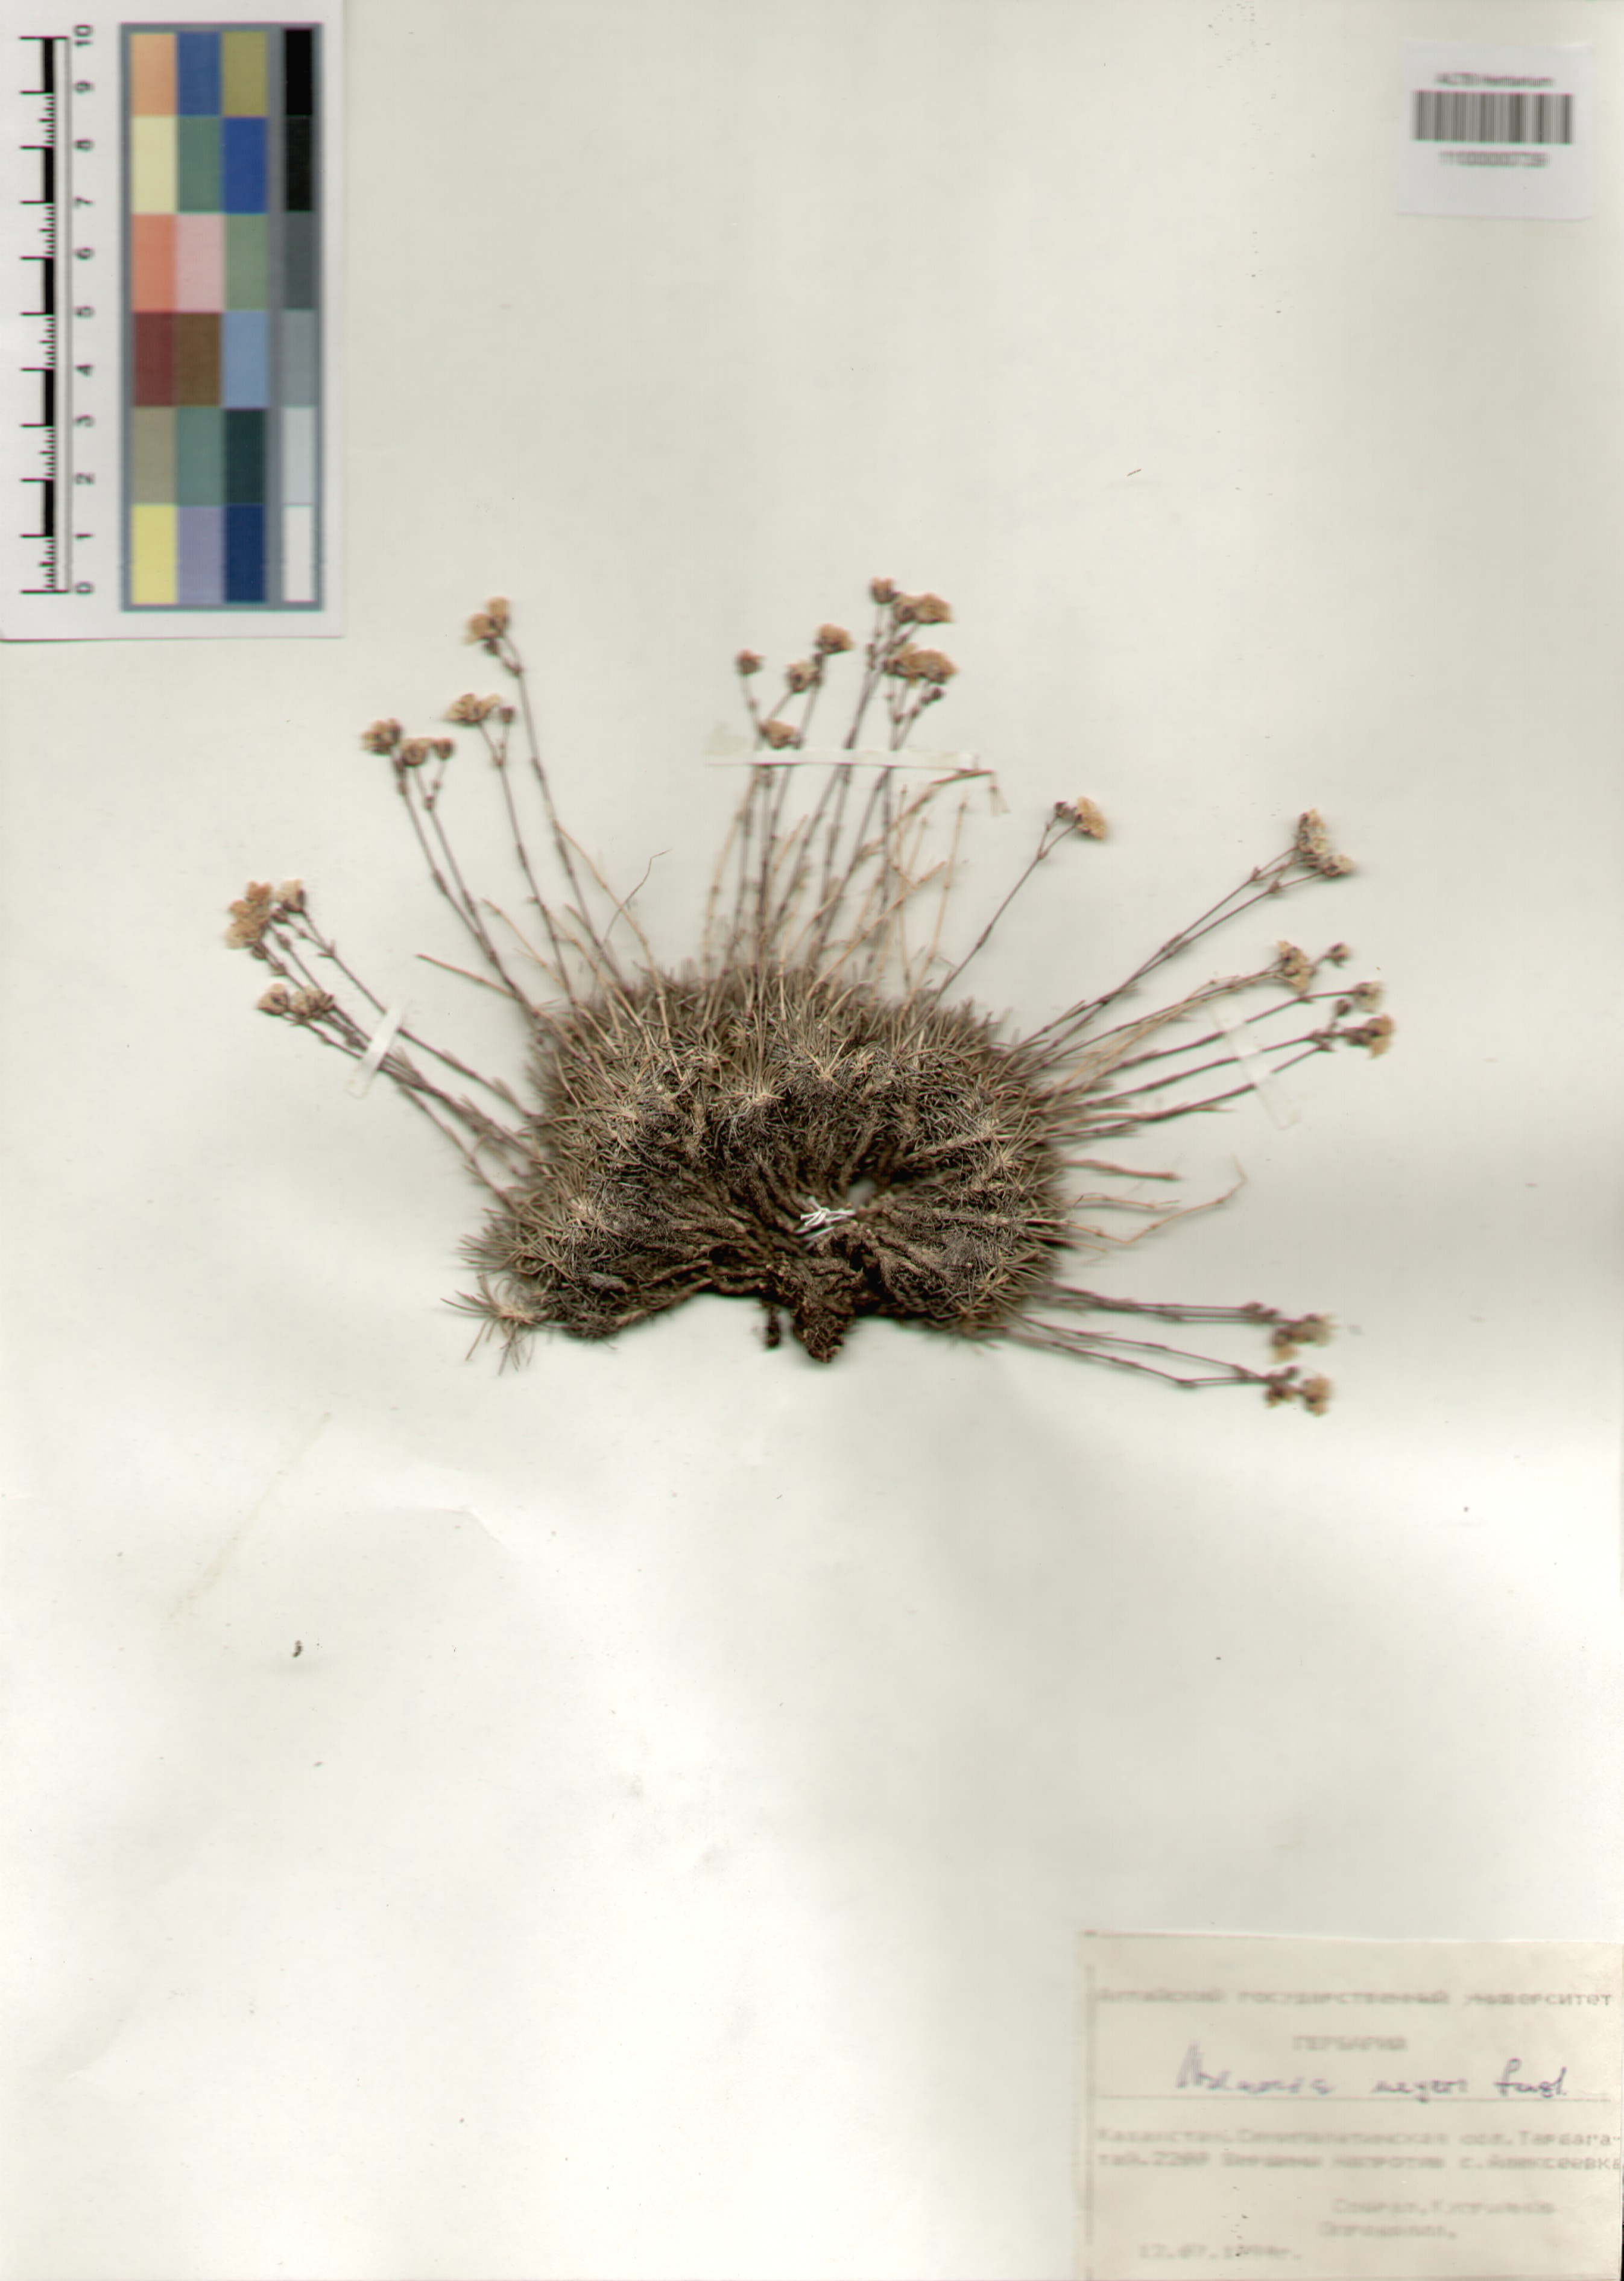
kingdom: Plantae
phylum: Tracheophyta
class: Magnoliopsida
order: Caryophyllales
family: Caryophyllaceae
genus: Eremogone
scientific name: Eremogone meyeri
